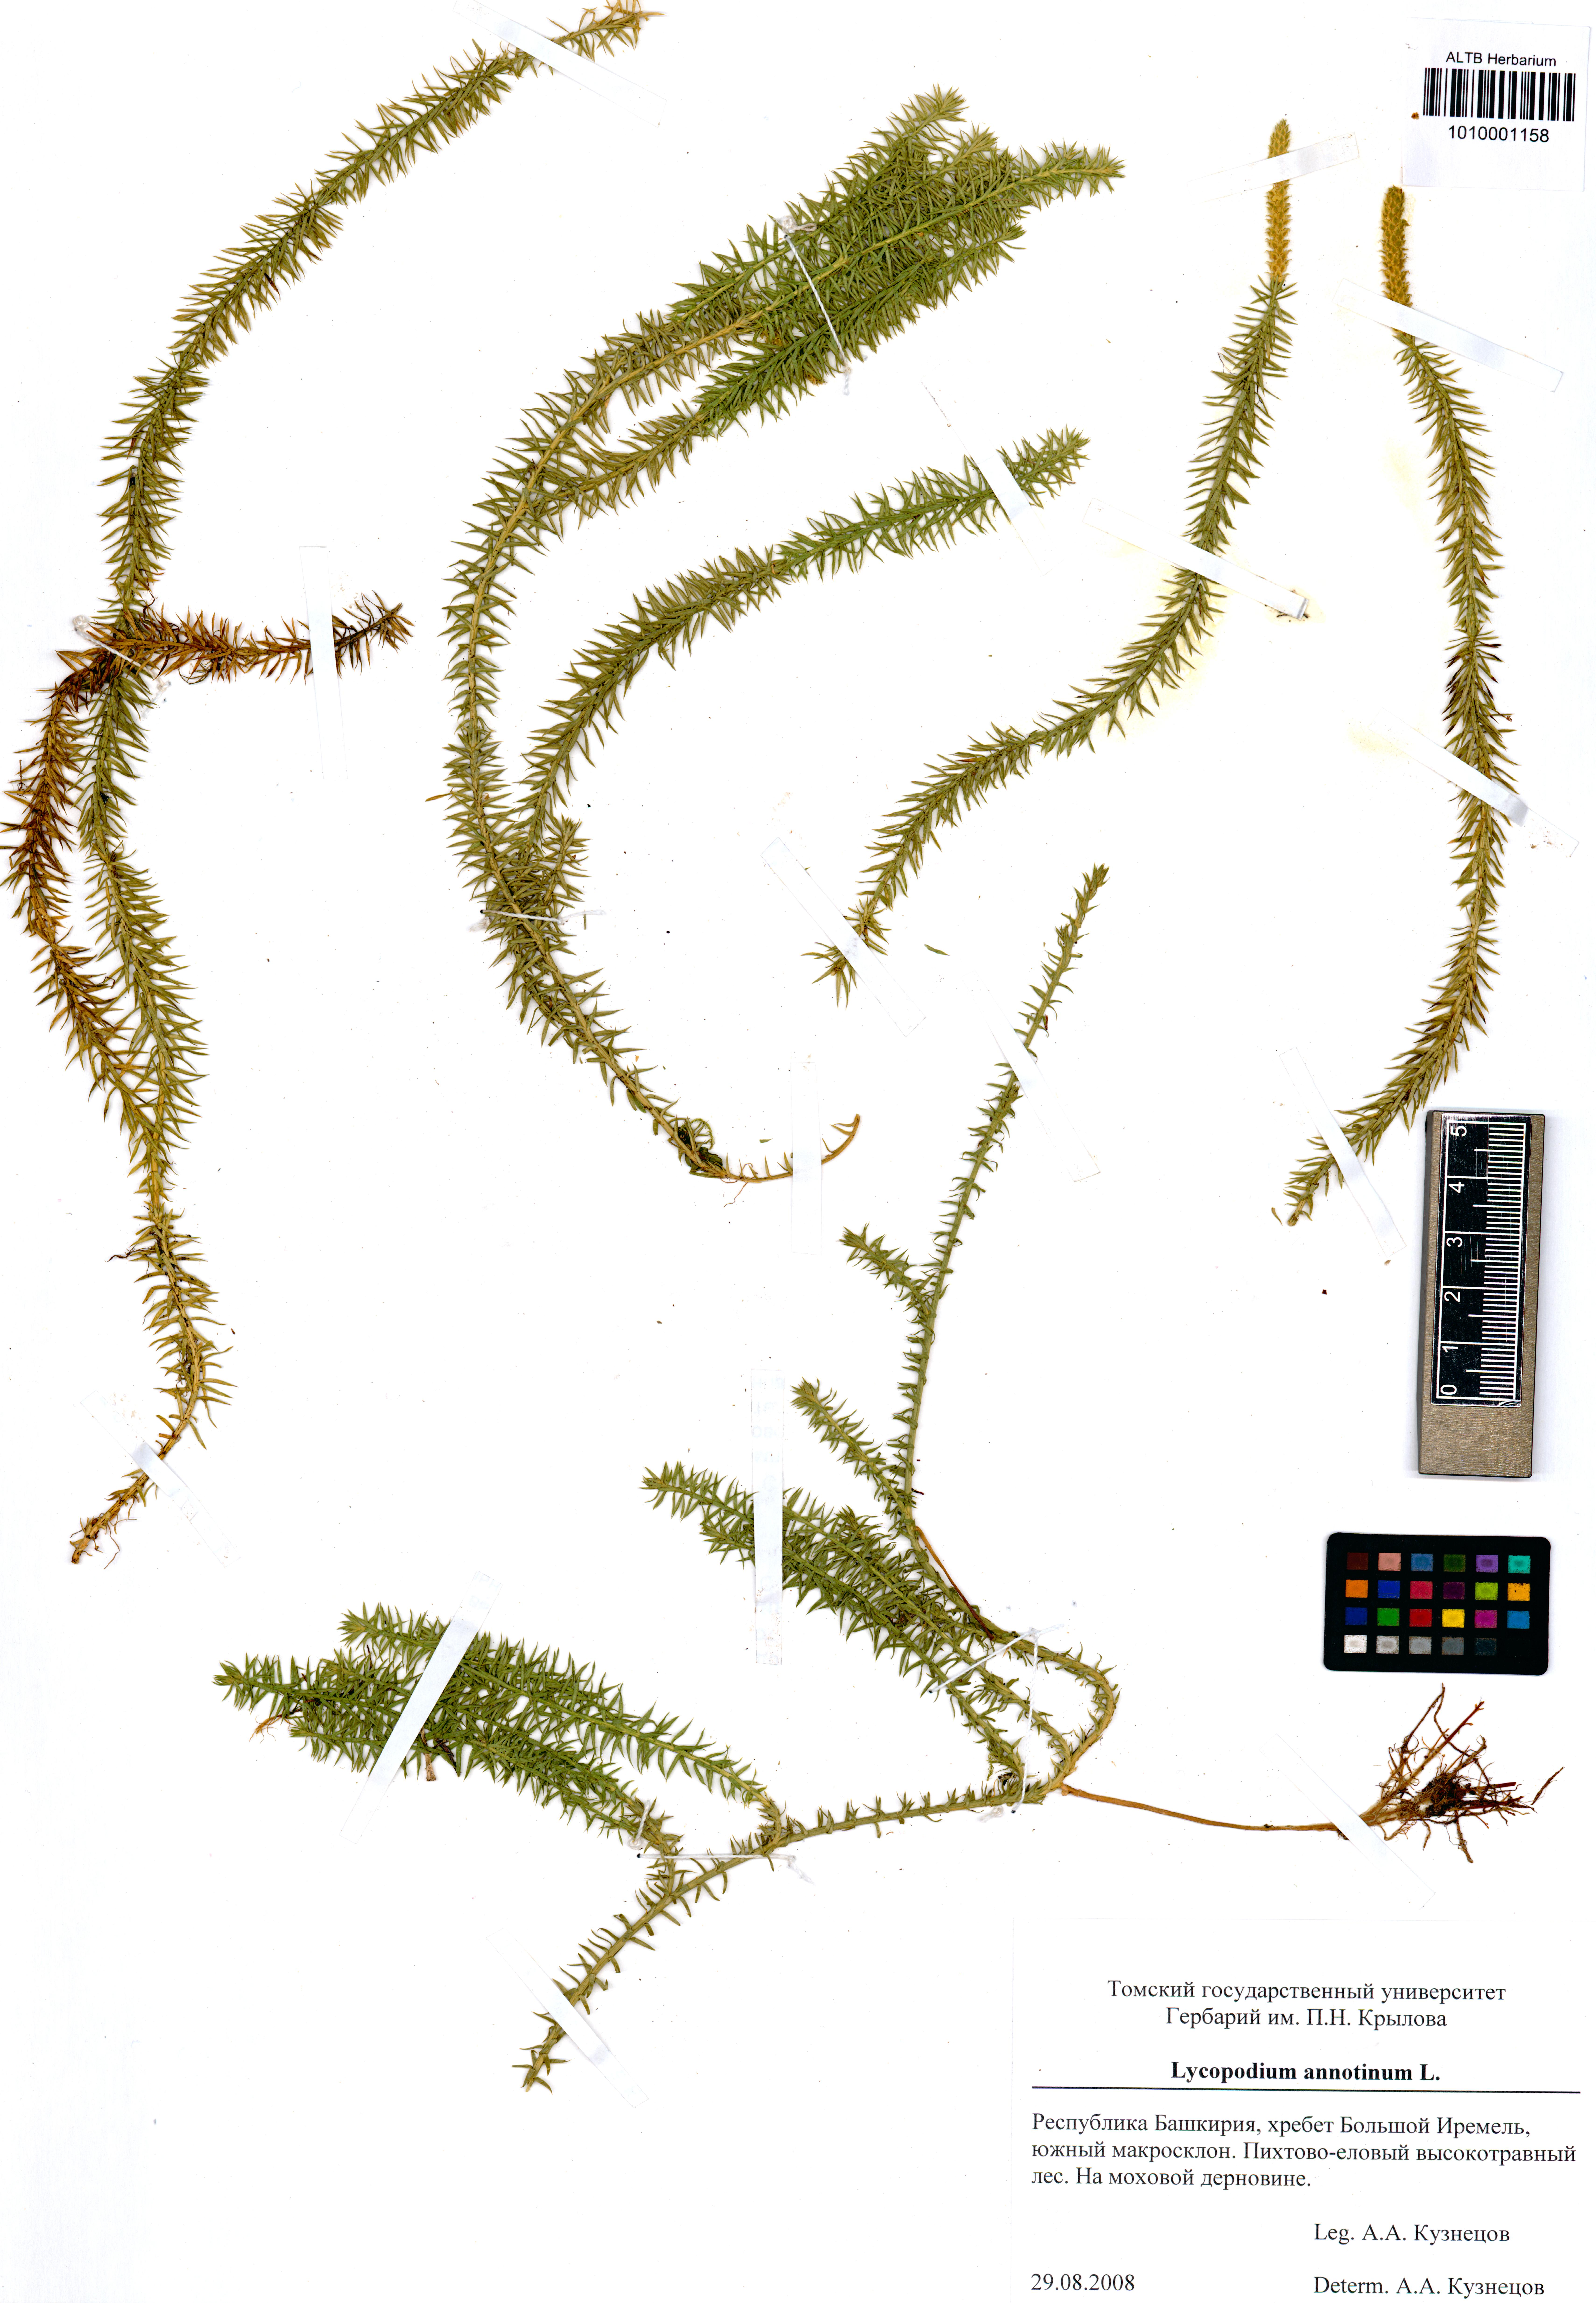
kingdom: Plantae
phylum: Tracheophyta
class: Lycopodiopsida
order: Lycopodiales
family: Lycopodiaceae
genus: Spinulum
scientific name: Spinulum annotinum
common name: Interrupted club-moss
